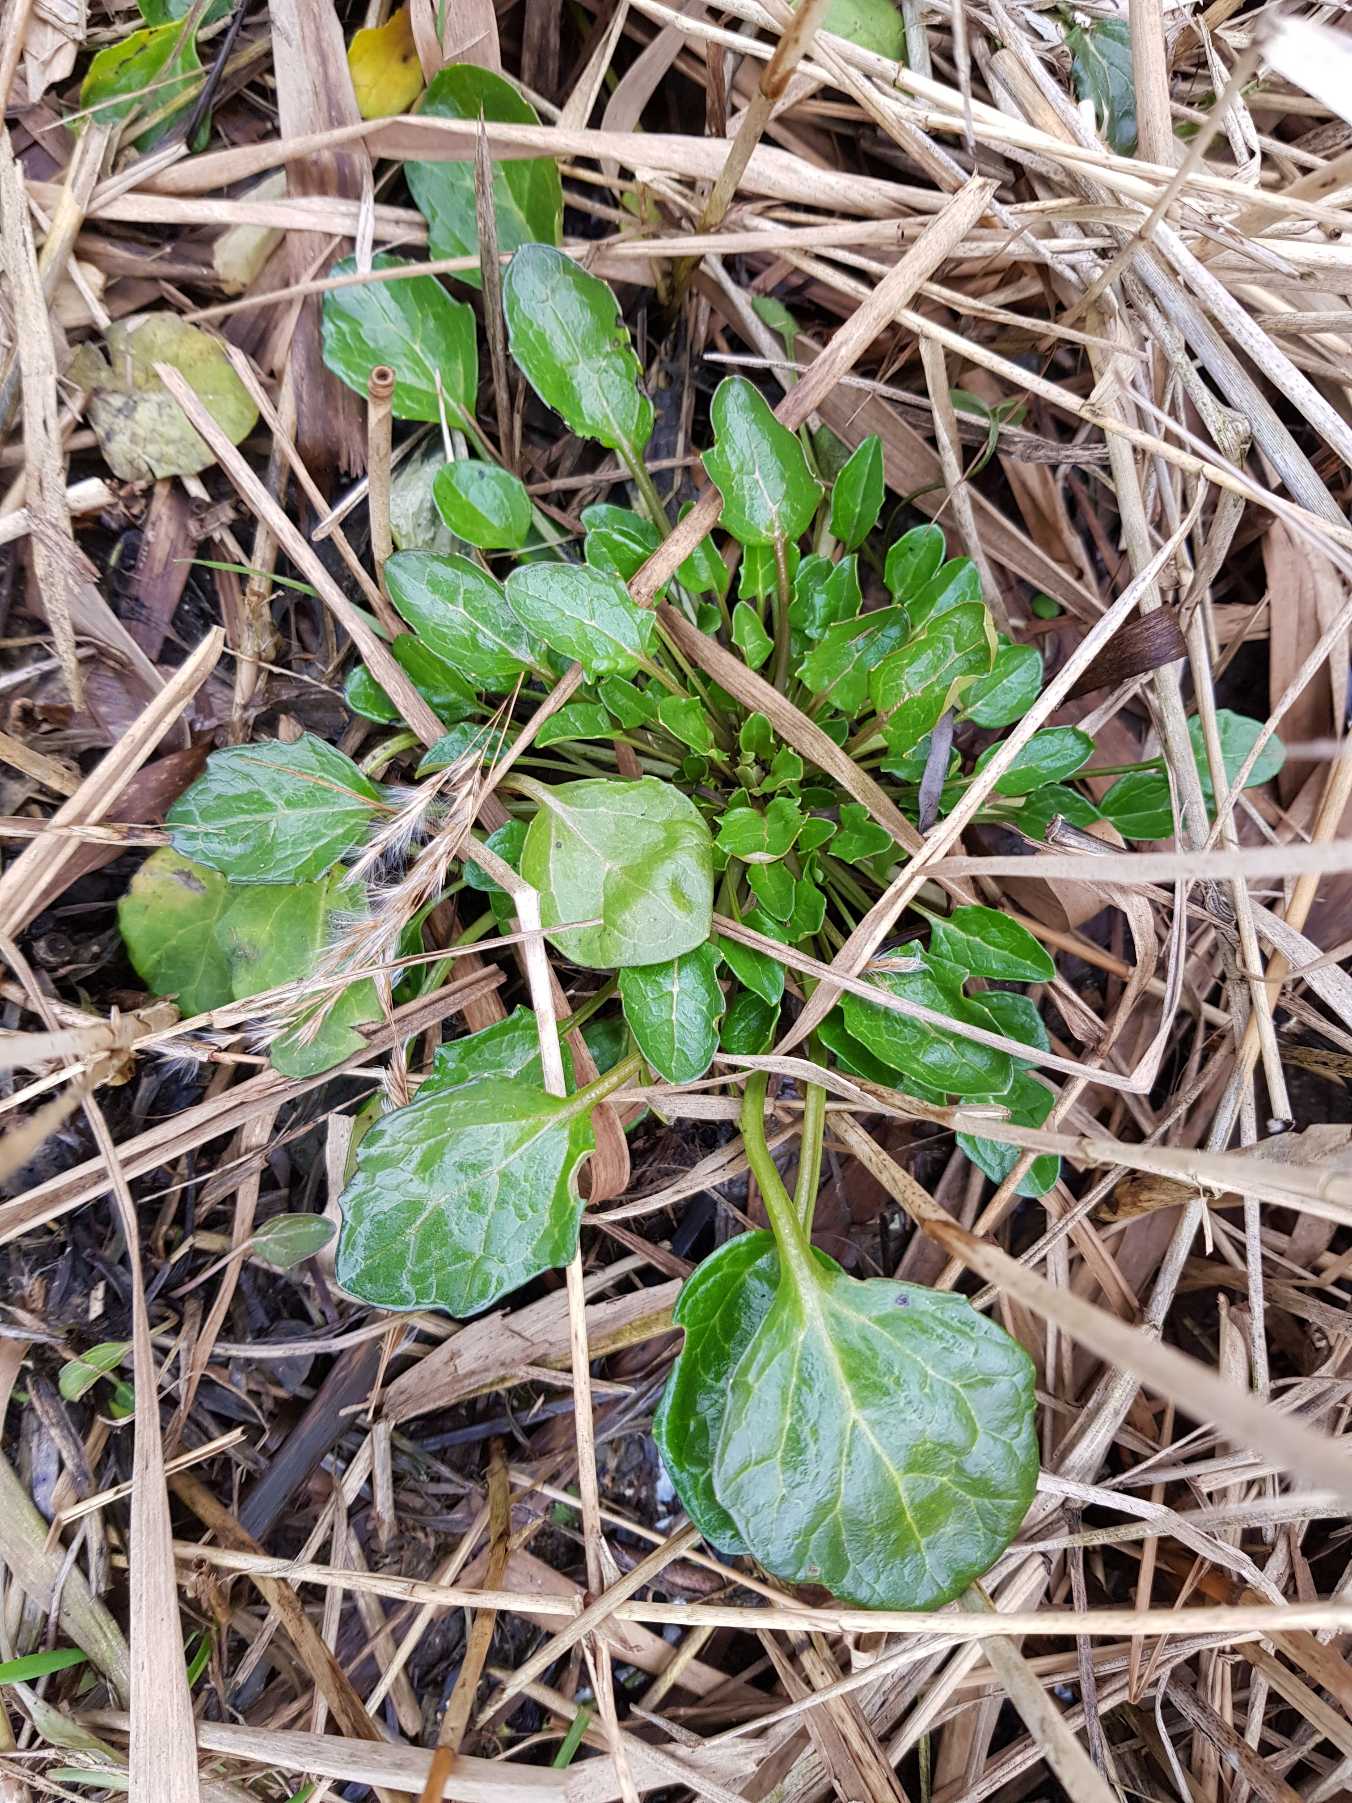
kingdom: Plantae
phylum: Tracheophyta
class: Magnoliopsida
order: Brassicales
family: Brassicaceae
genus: Cochlearia
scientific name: Cochlearia anglica
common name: Engelsk kokleare
